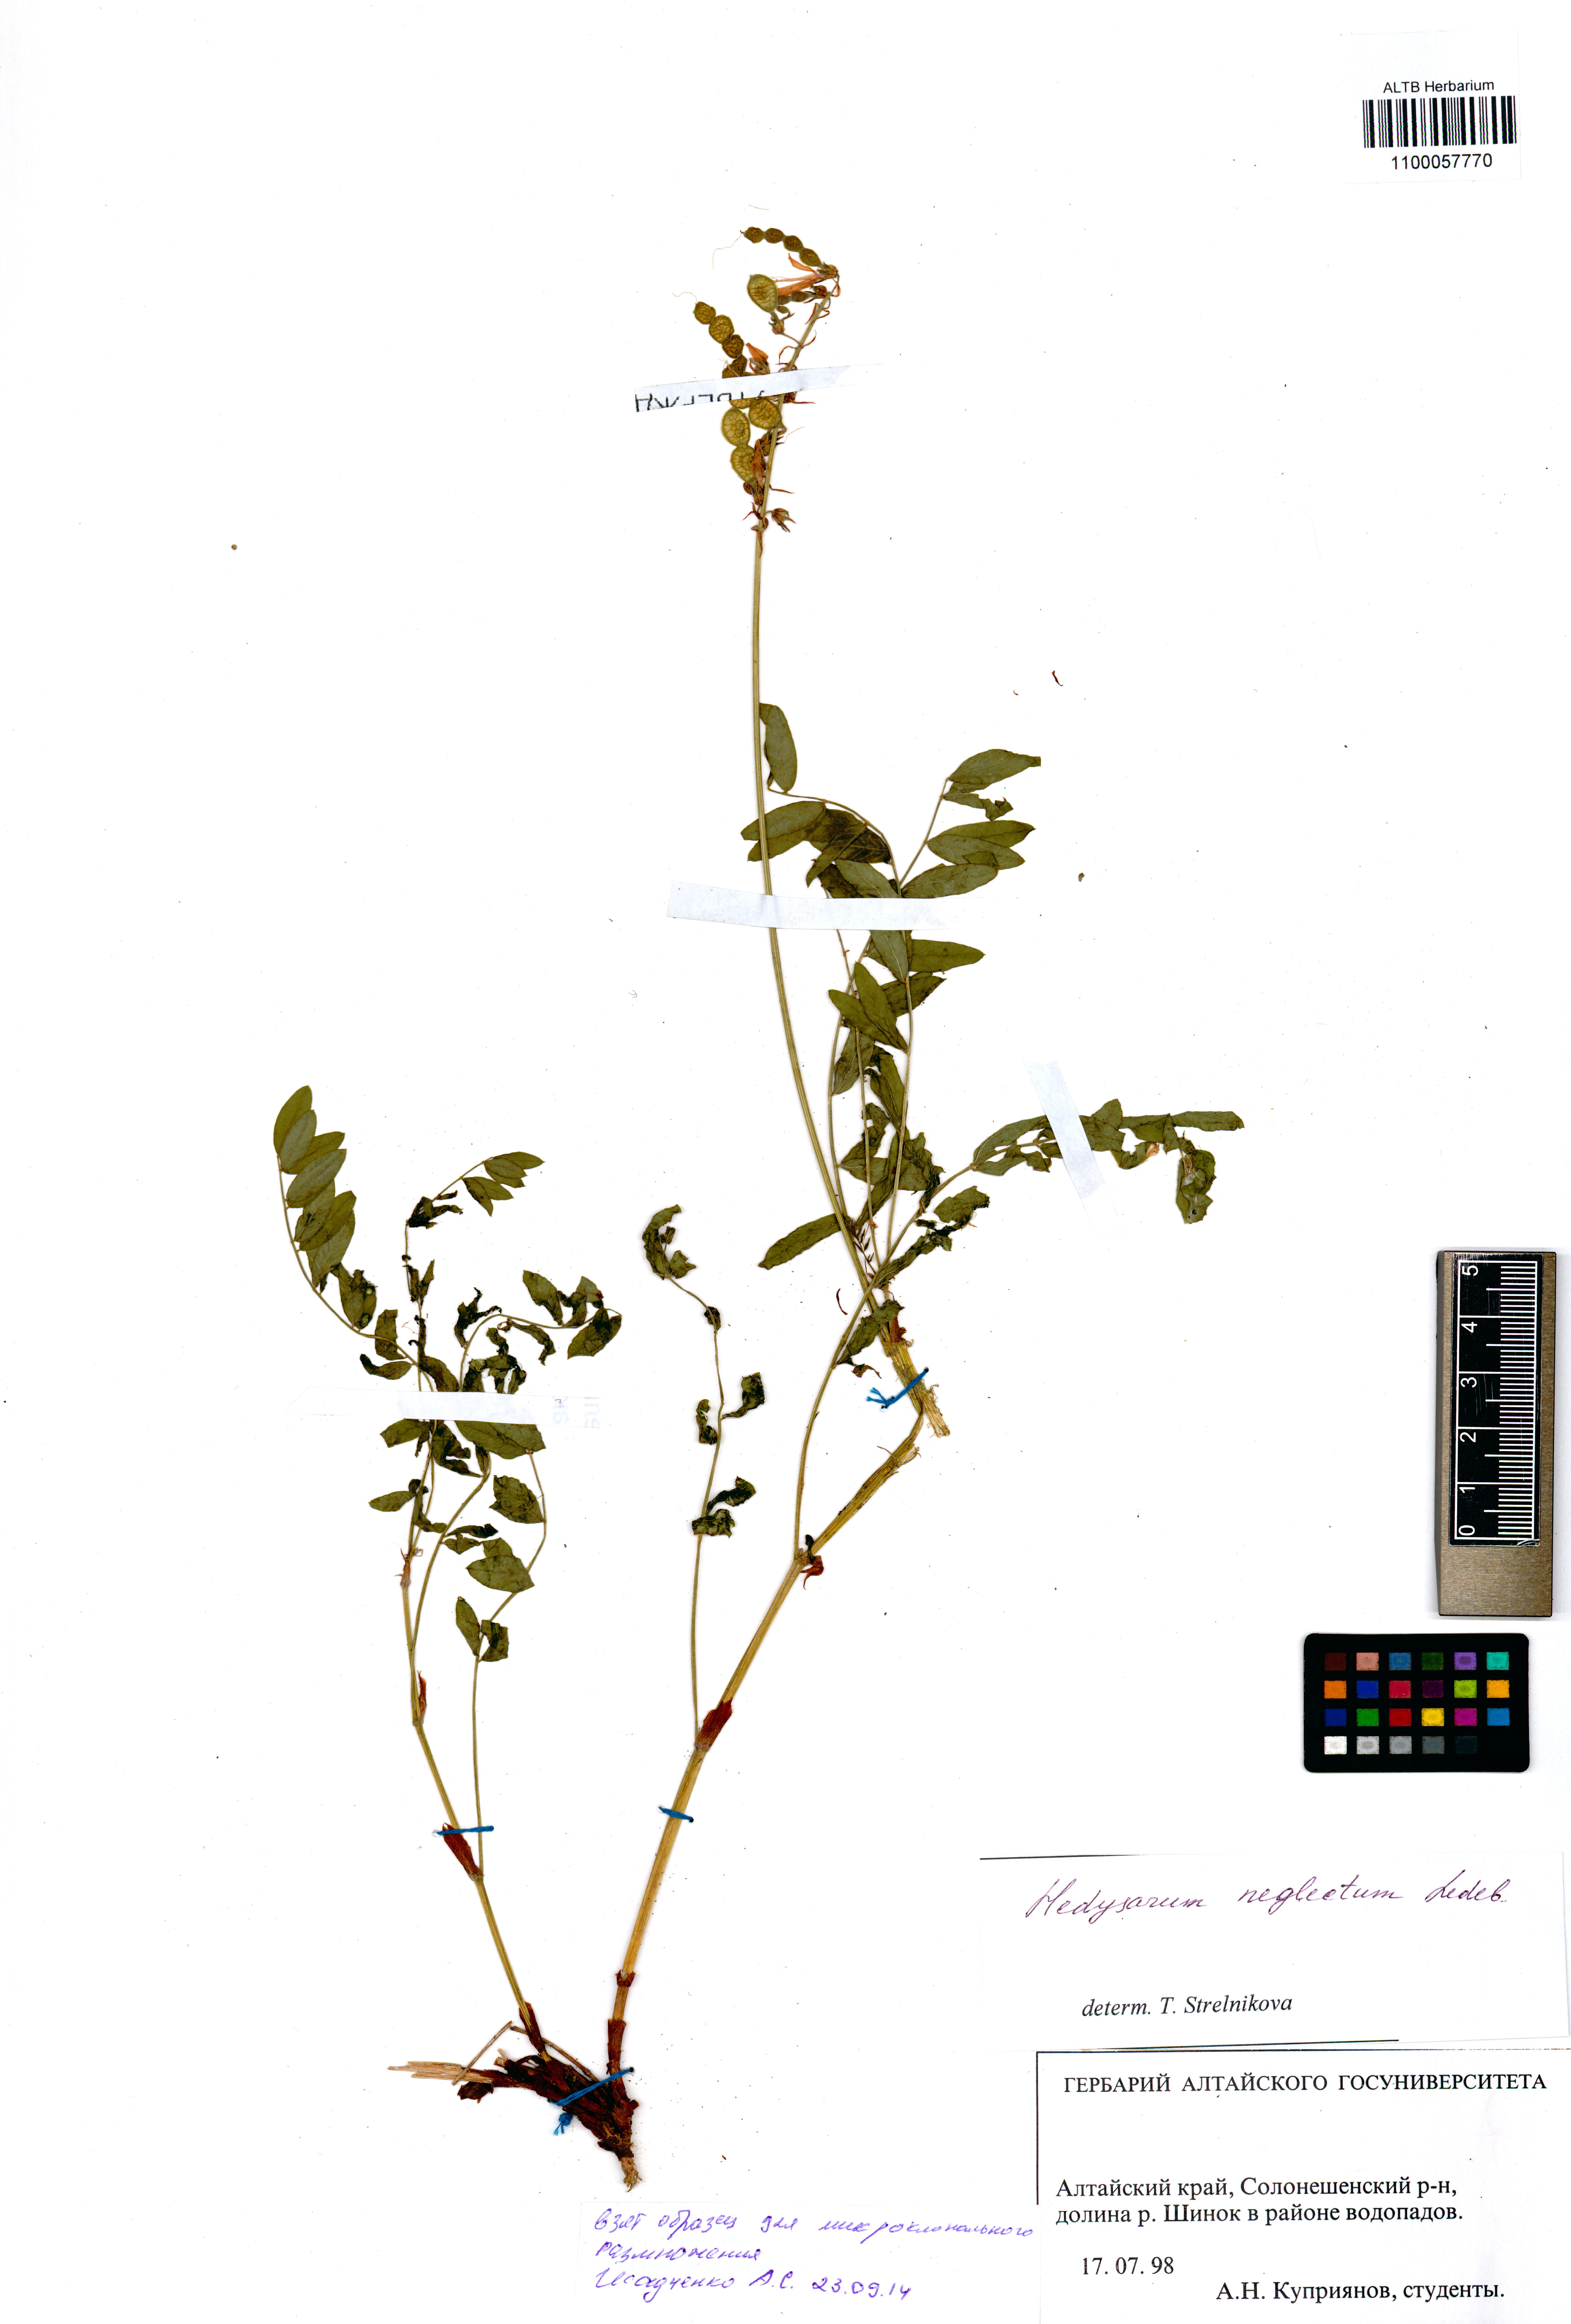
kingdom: Plantae
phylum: Tracheophyta
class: Magnoliopsida
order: Fabales
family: Fabaceae
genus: Hedysarum
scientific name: Hedysarum neglectum
